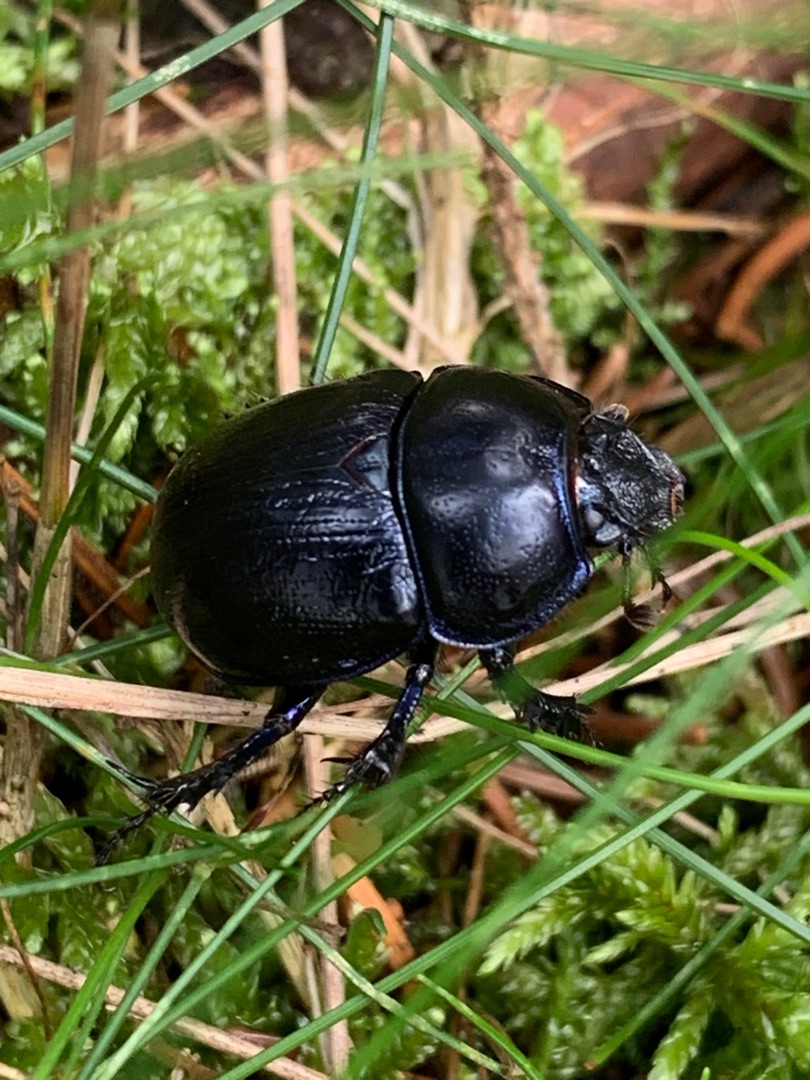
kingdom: Animalia
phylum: Arthropoda
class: Insecta
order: Coleoptera
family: Geotrupidae
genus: Anoplotrupes
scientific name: Anoplotrupes stercorosus
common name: Skovskarnbasse
